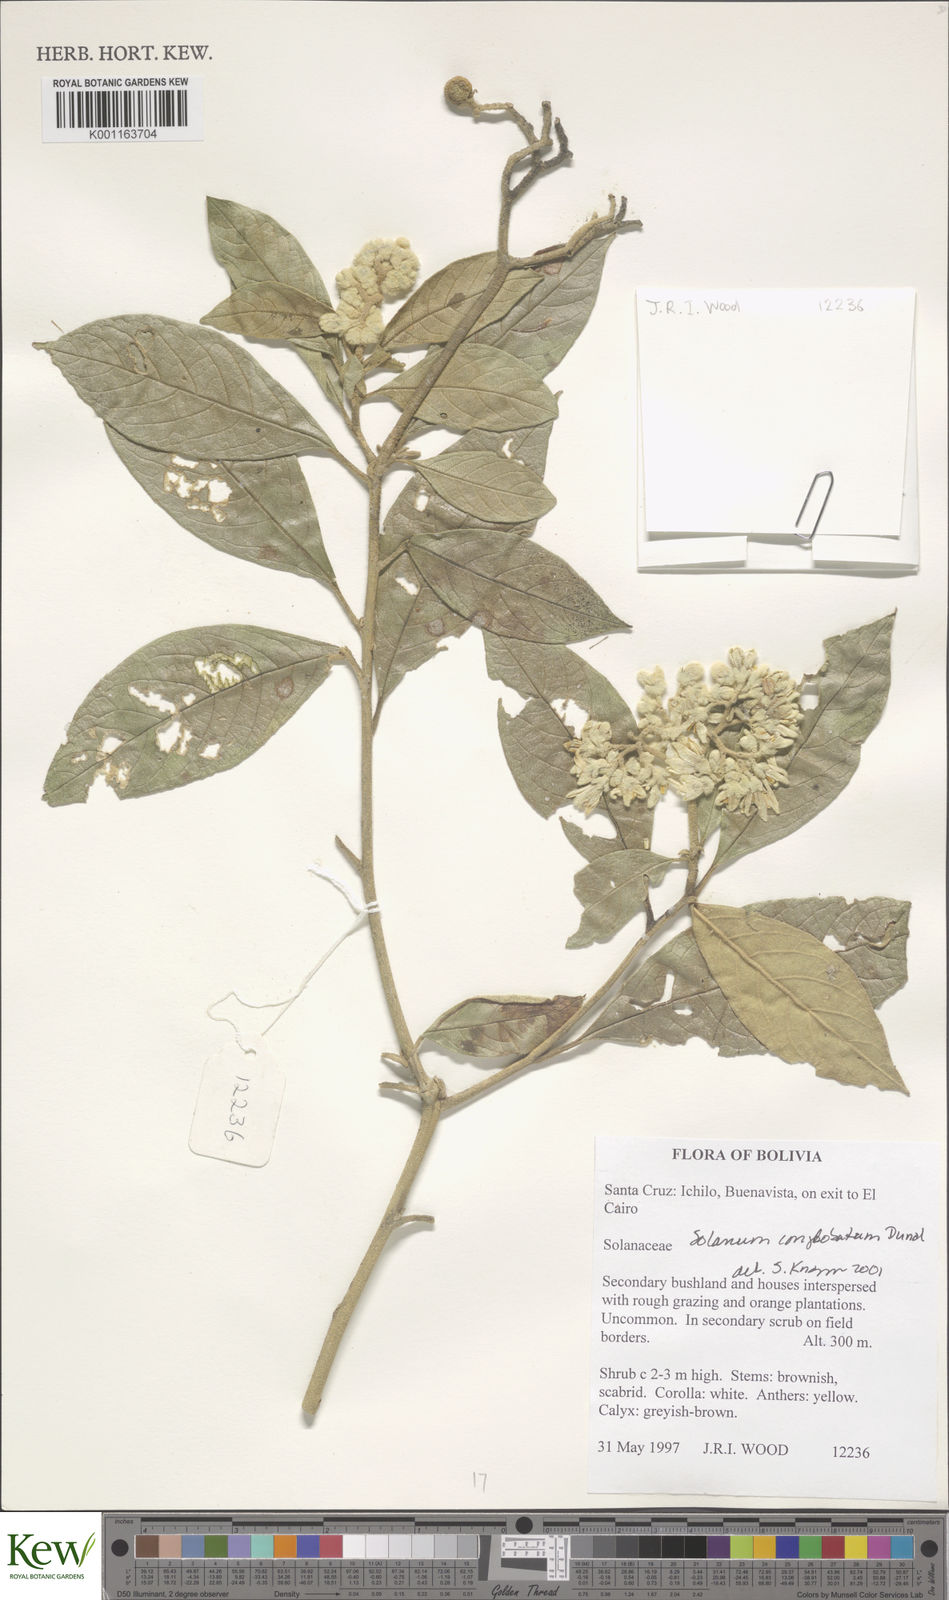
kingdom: Plantae
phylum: Tracheophyta
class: Magnoliopsida
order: Solanales
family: Solanaceae
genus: Solanum
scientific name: Solanum conglobatum
